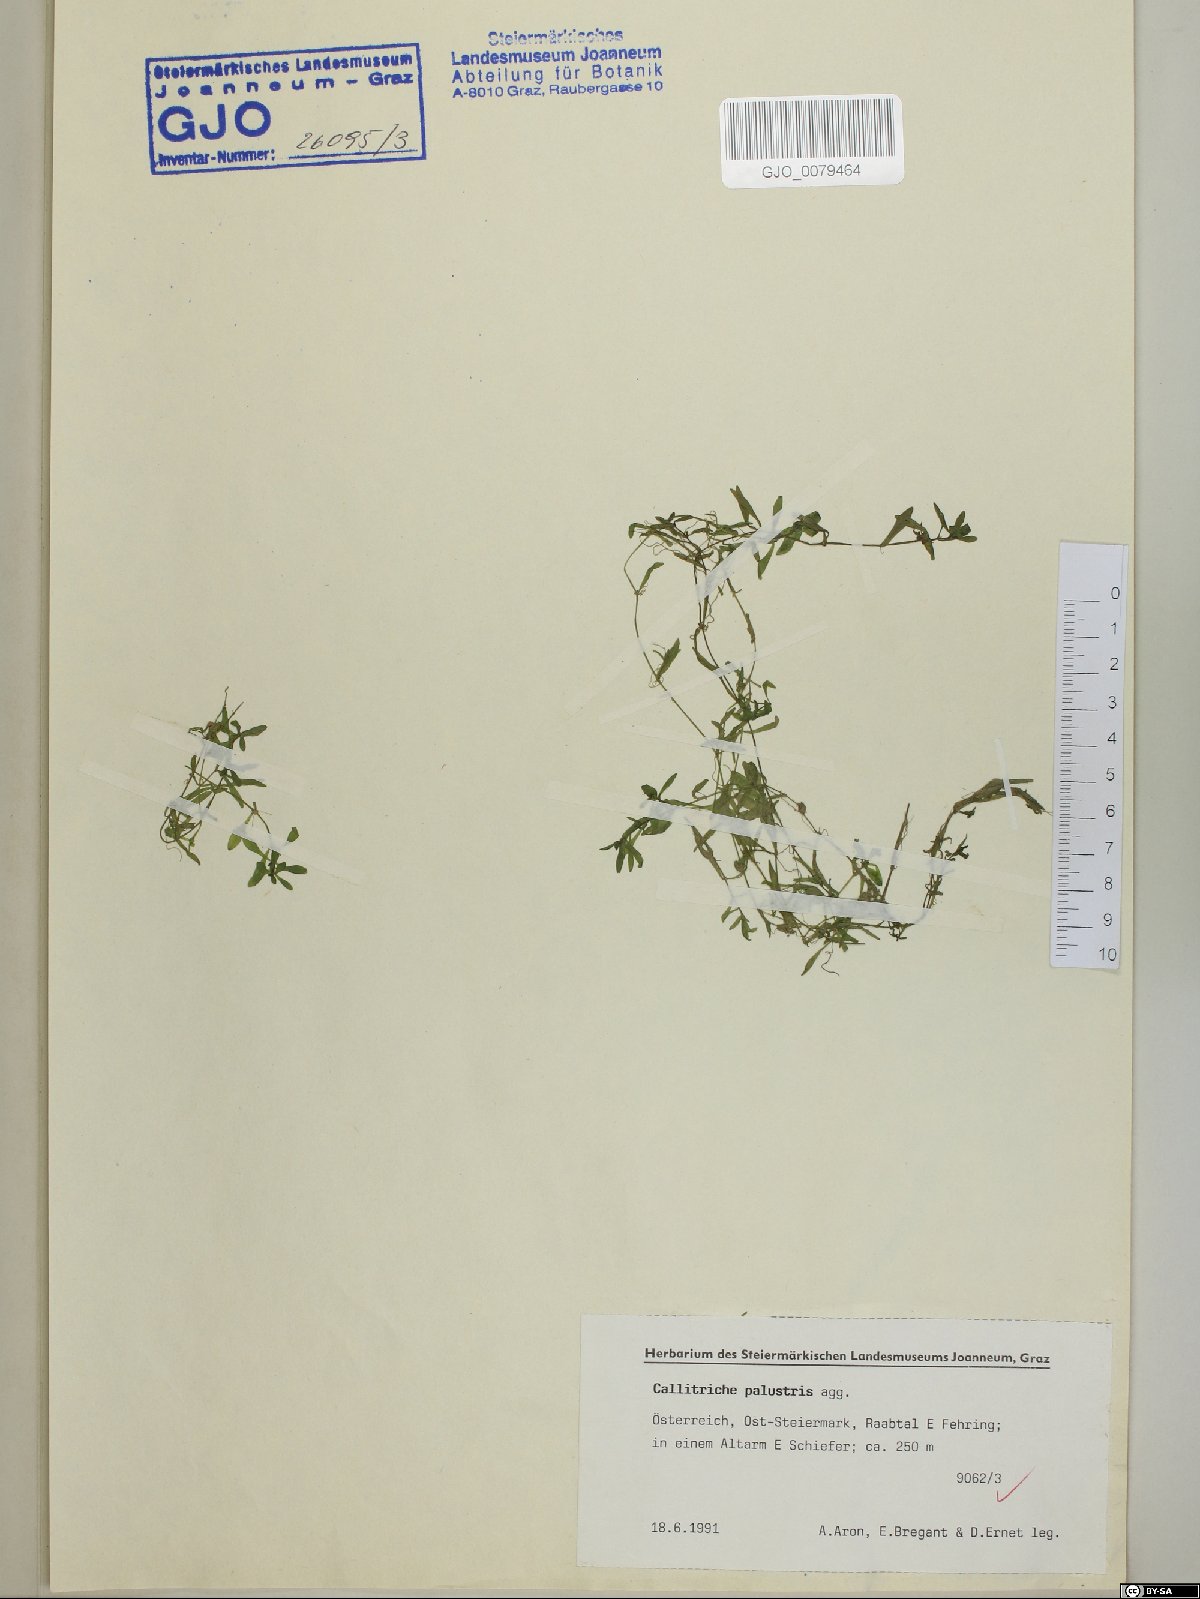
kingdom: Plantae
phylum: Tracheophyta
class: Magnoliopsida
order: Lamiales
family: Plantaginaceae
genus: Callitriche
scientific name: Callitriche palustris
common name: Spring water-starwort
